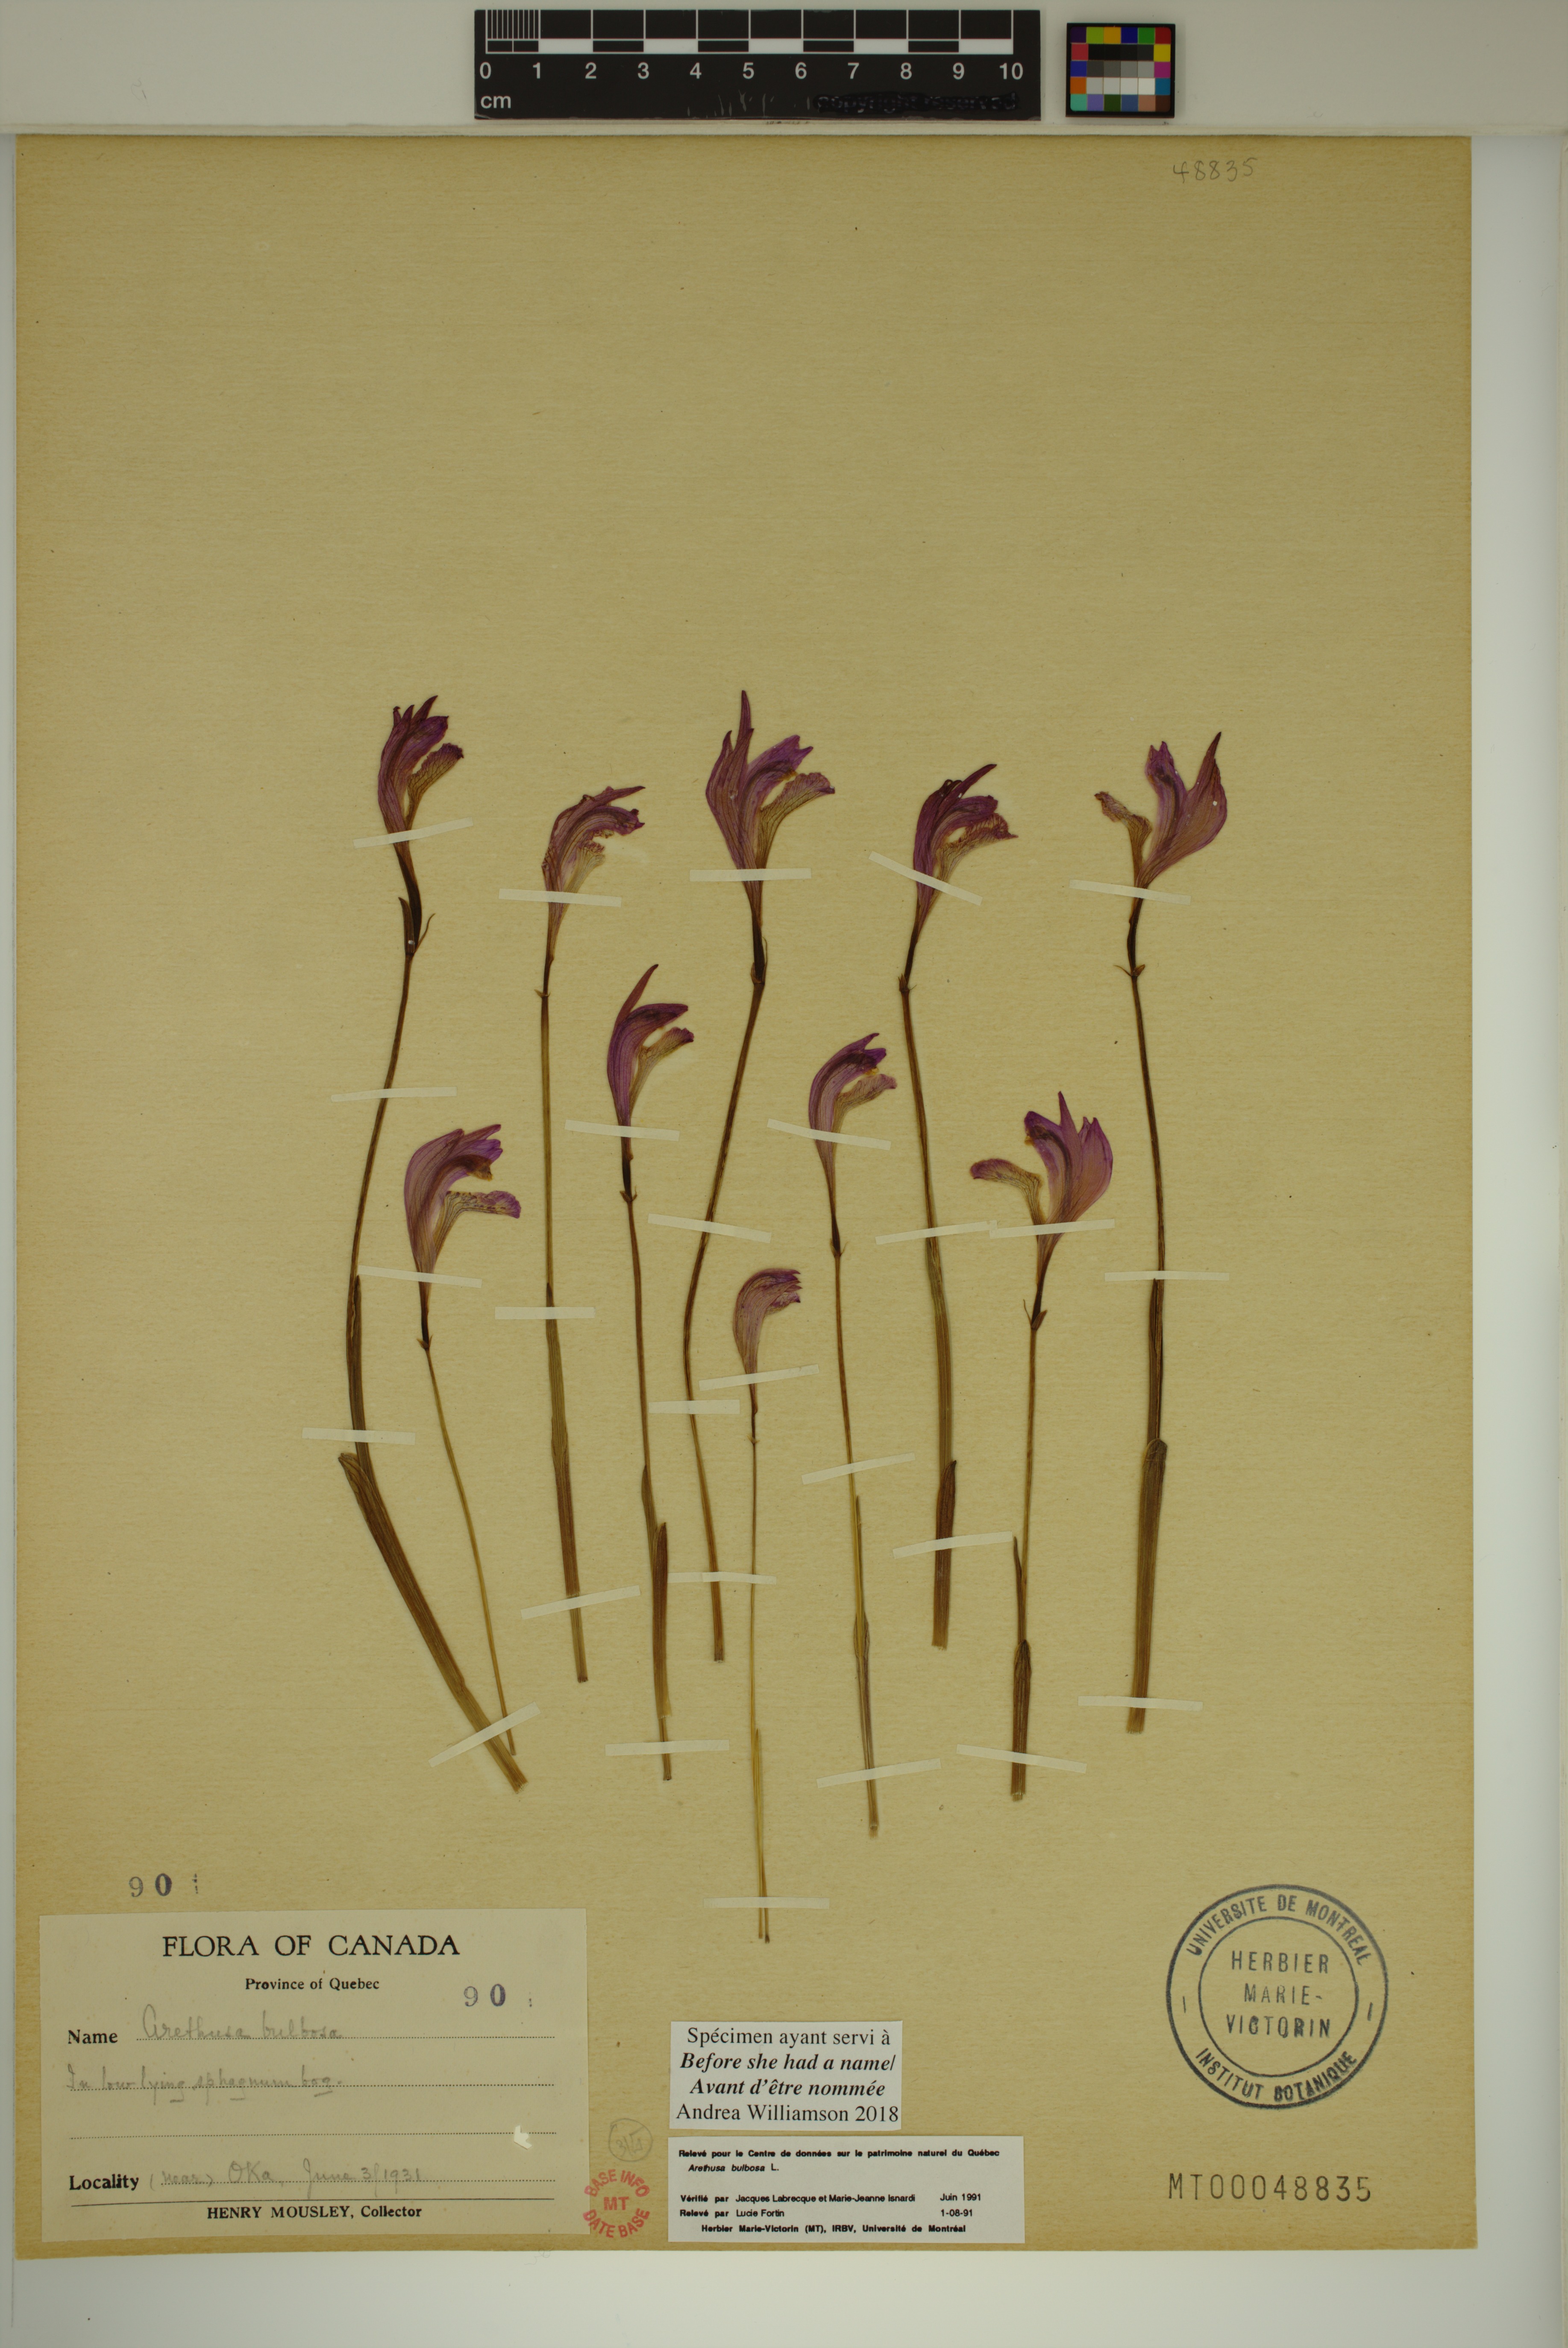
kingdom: Plantae
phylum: Tracheophyta
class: Liliopsida
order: Asparagales
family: Orchidaceae
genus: Arethusa
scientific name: Arethusa bulbosa
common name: Arethusa
